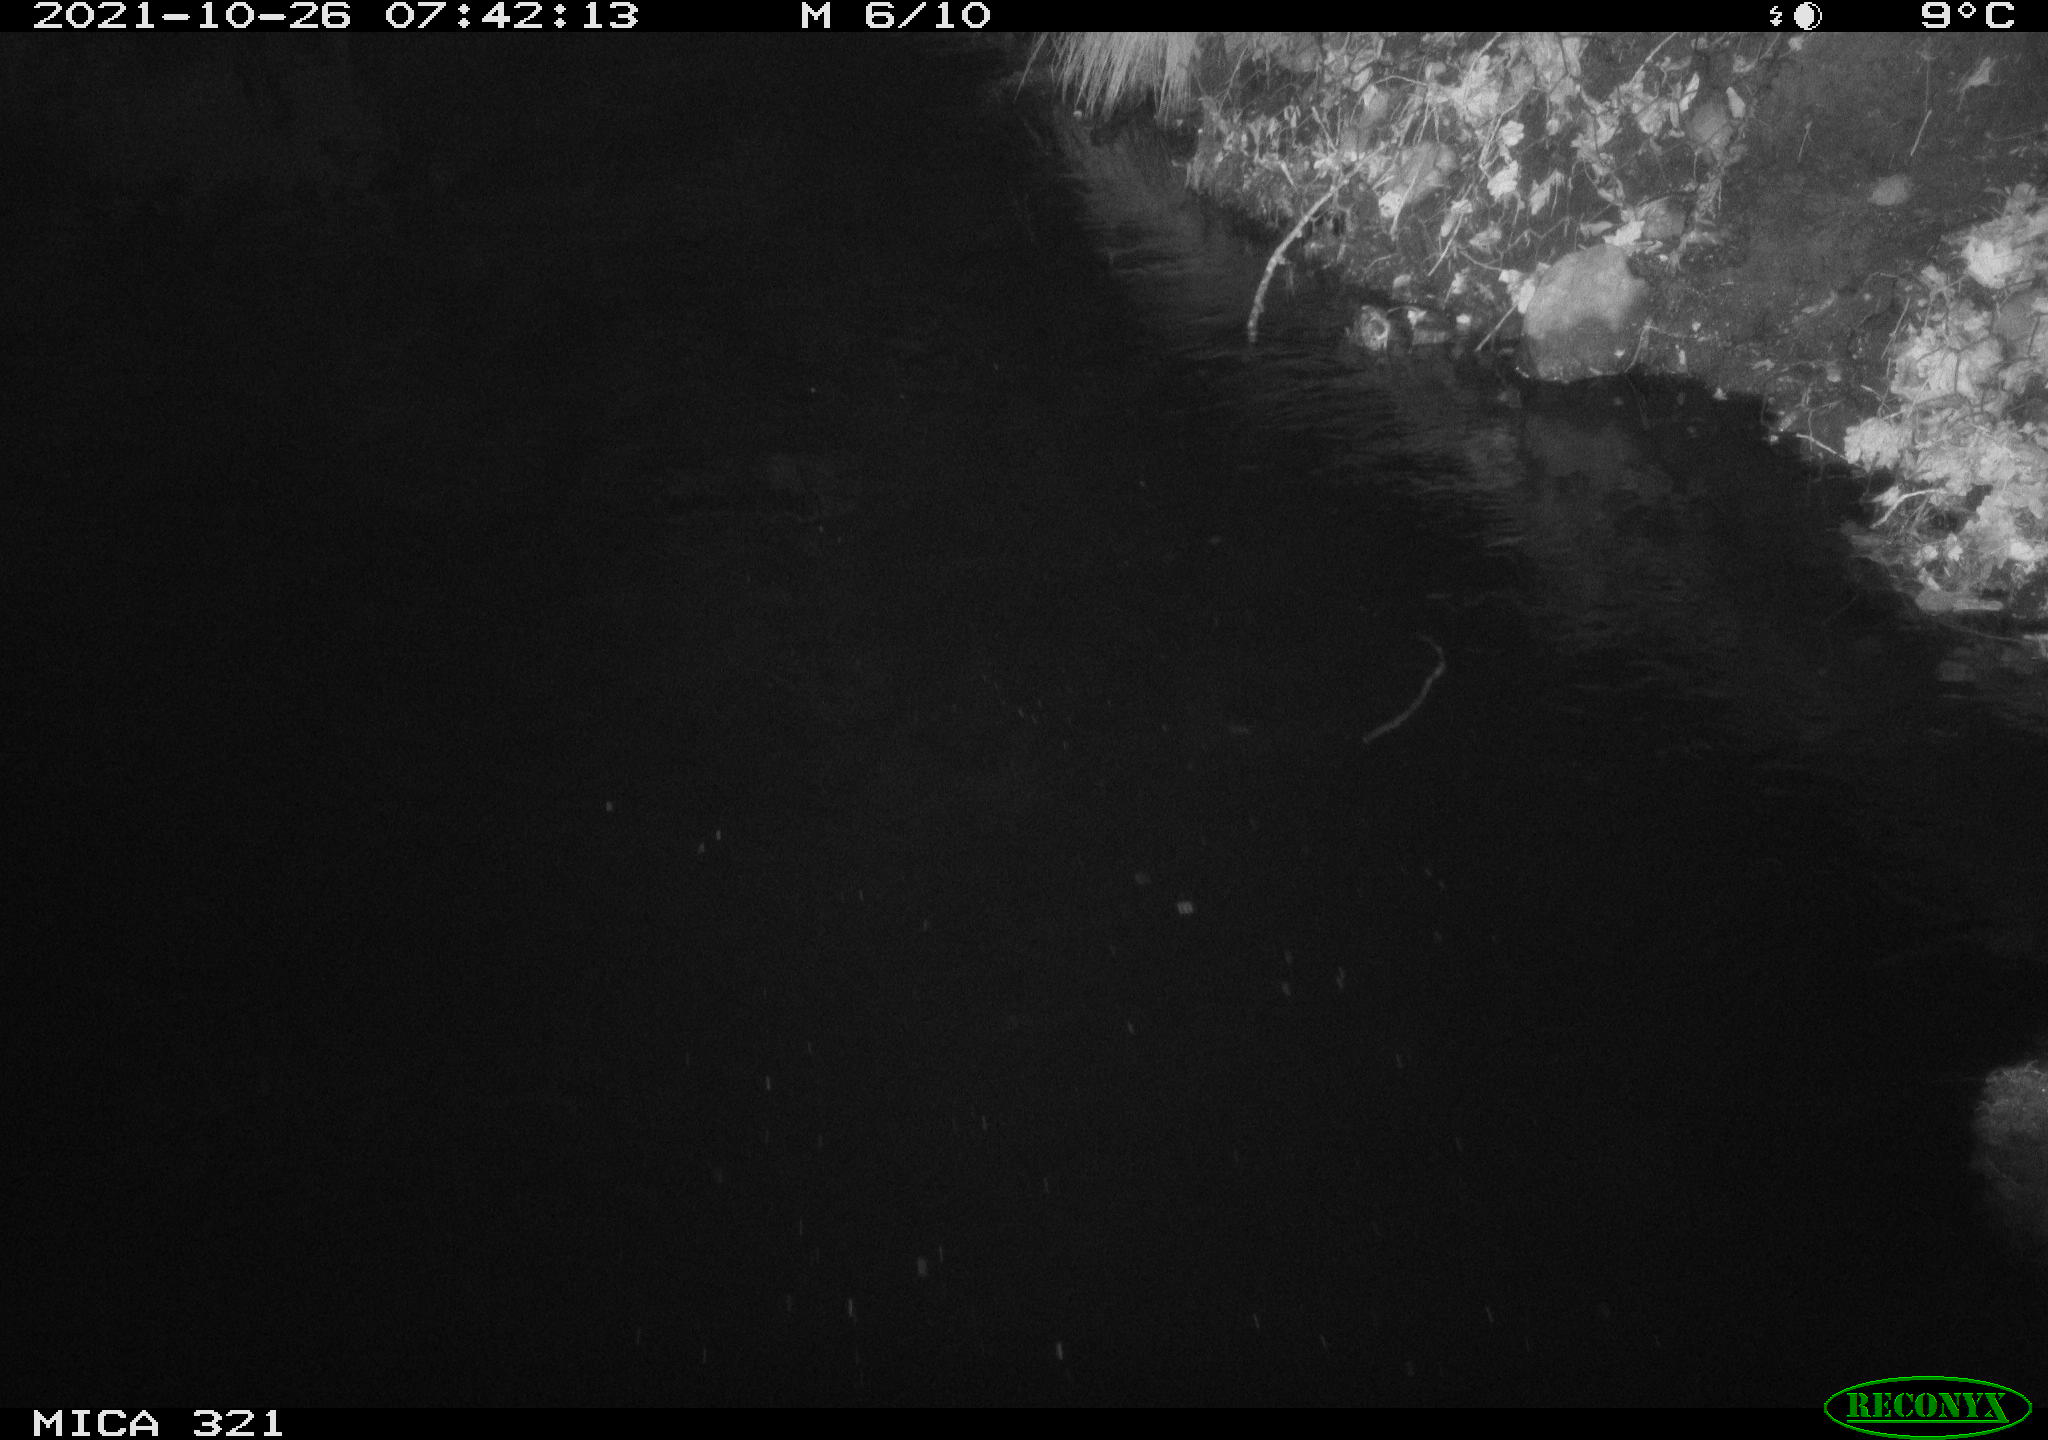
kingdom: Animalia
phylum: Chordata
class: Aves
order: Anseriformes
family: Anatidae
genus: Anas
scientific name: Anas platyrhynchos
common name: Mallard
